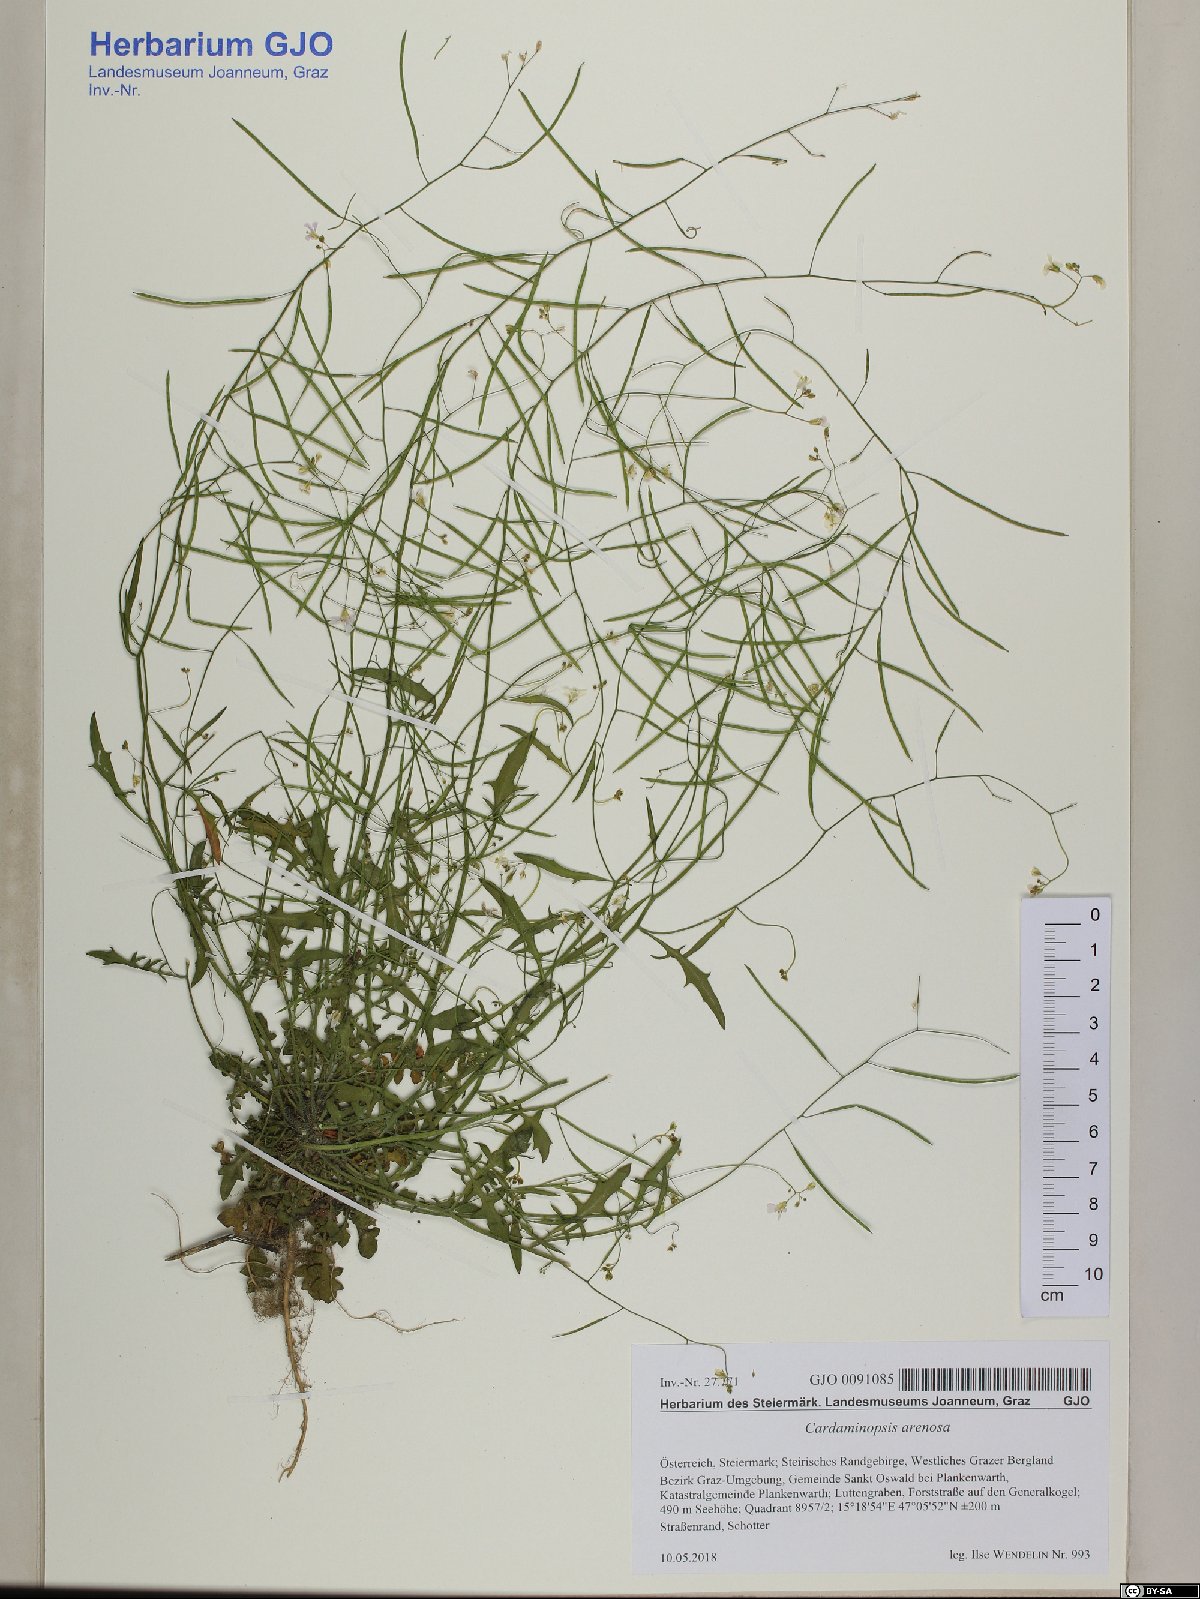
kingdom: Plantae
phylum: Tracheophyta
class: Magnoliopsida
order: Brassicales
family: Brassicaceae
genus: Arabidopsis
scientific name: Arabidopsis arenosa
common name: Sand rock-cress
